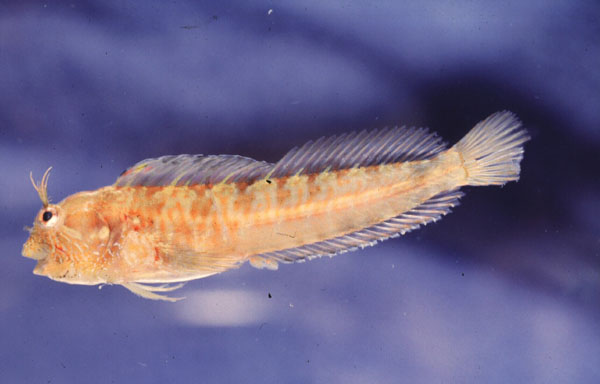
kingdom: Animalia
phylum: Chordata
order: Perciformes
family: Blenniidae
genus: Parablennius
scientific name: Parablennius incognitus
